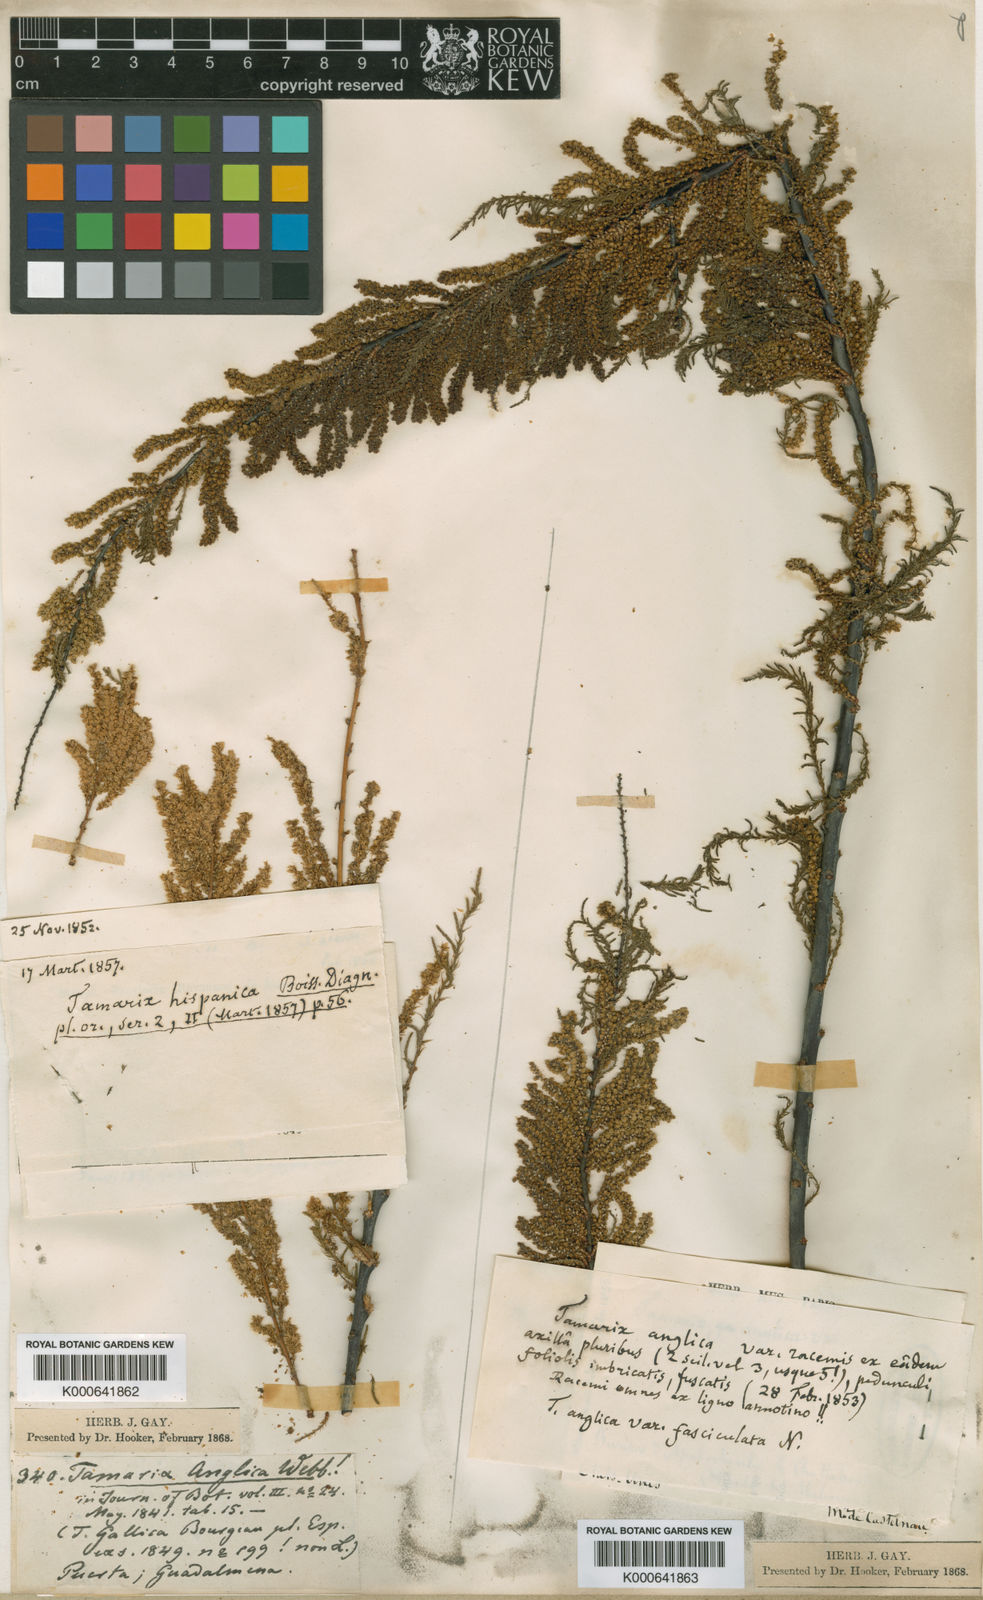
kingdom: Plantae
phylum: Tracheophyta
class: Magnoliopsida
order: Caryophyllales
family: Tamaricaceae
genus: Tamarix
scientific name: Tamarix africana
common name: African tamarisk
